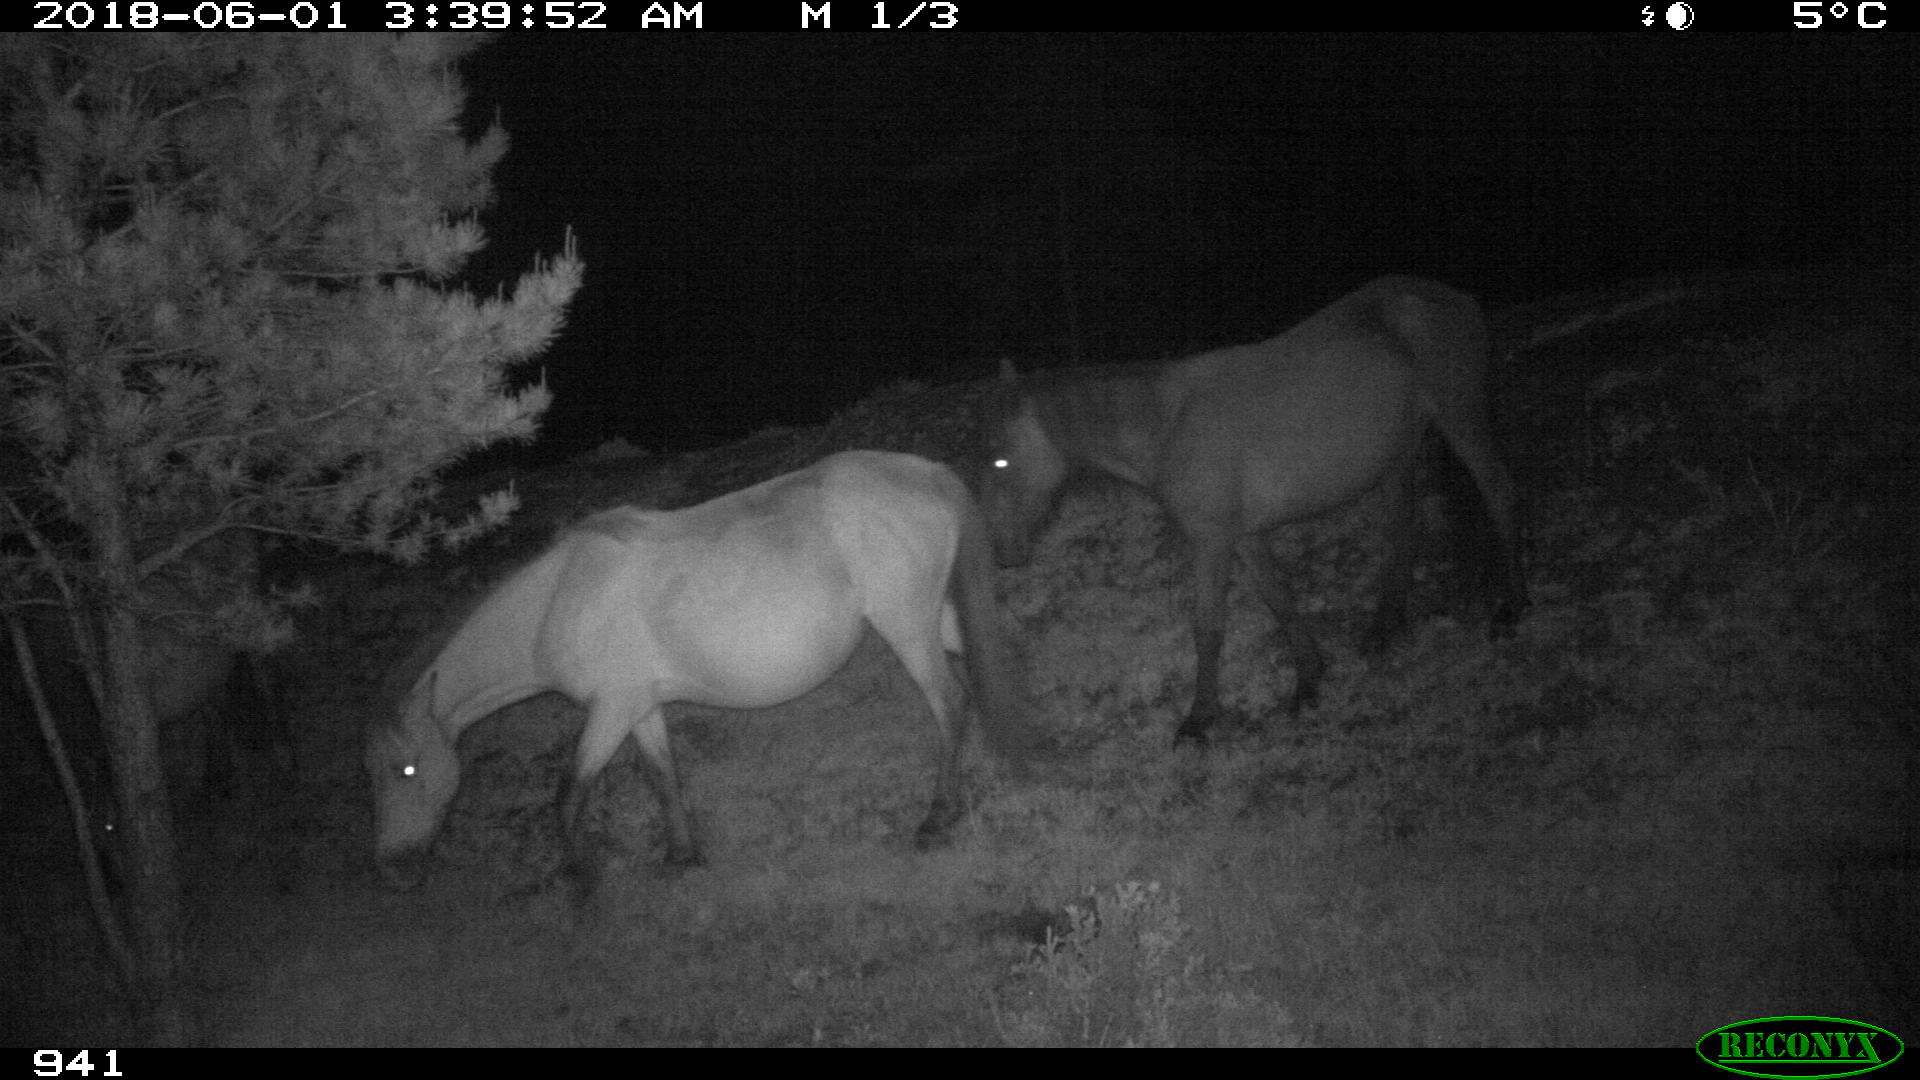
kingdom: Animalia
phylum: Chordata
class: Mammalia
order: Perissodactyla
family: Equidae
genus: Equus
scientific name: Equus caballus
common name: Horse
